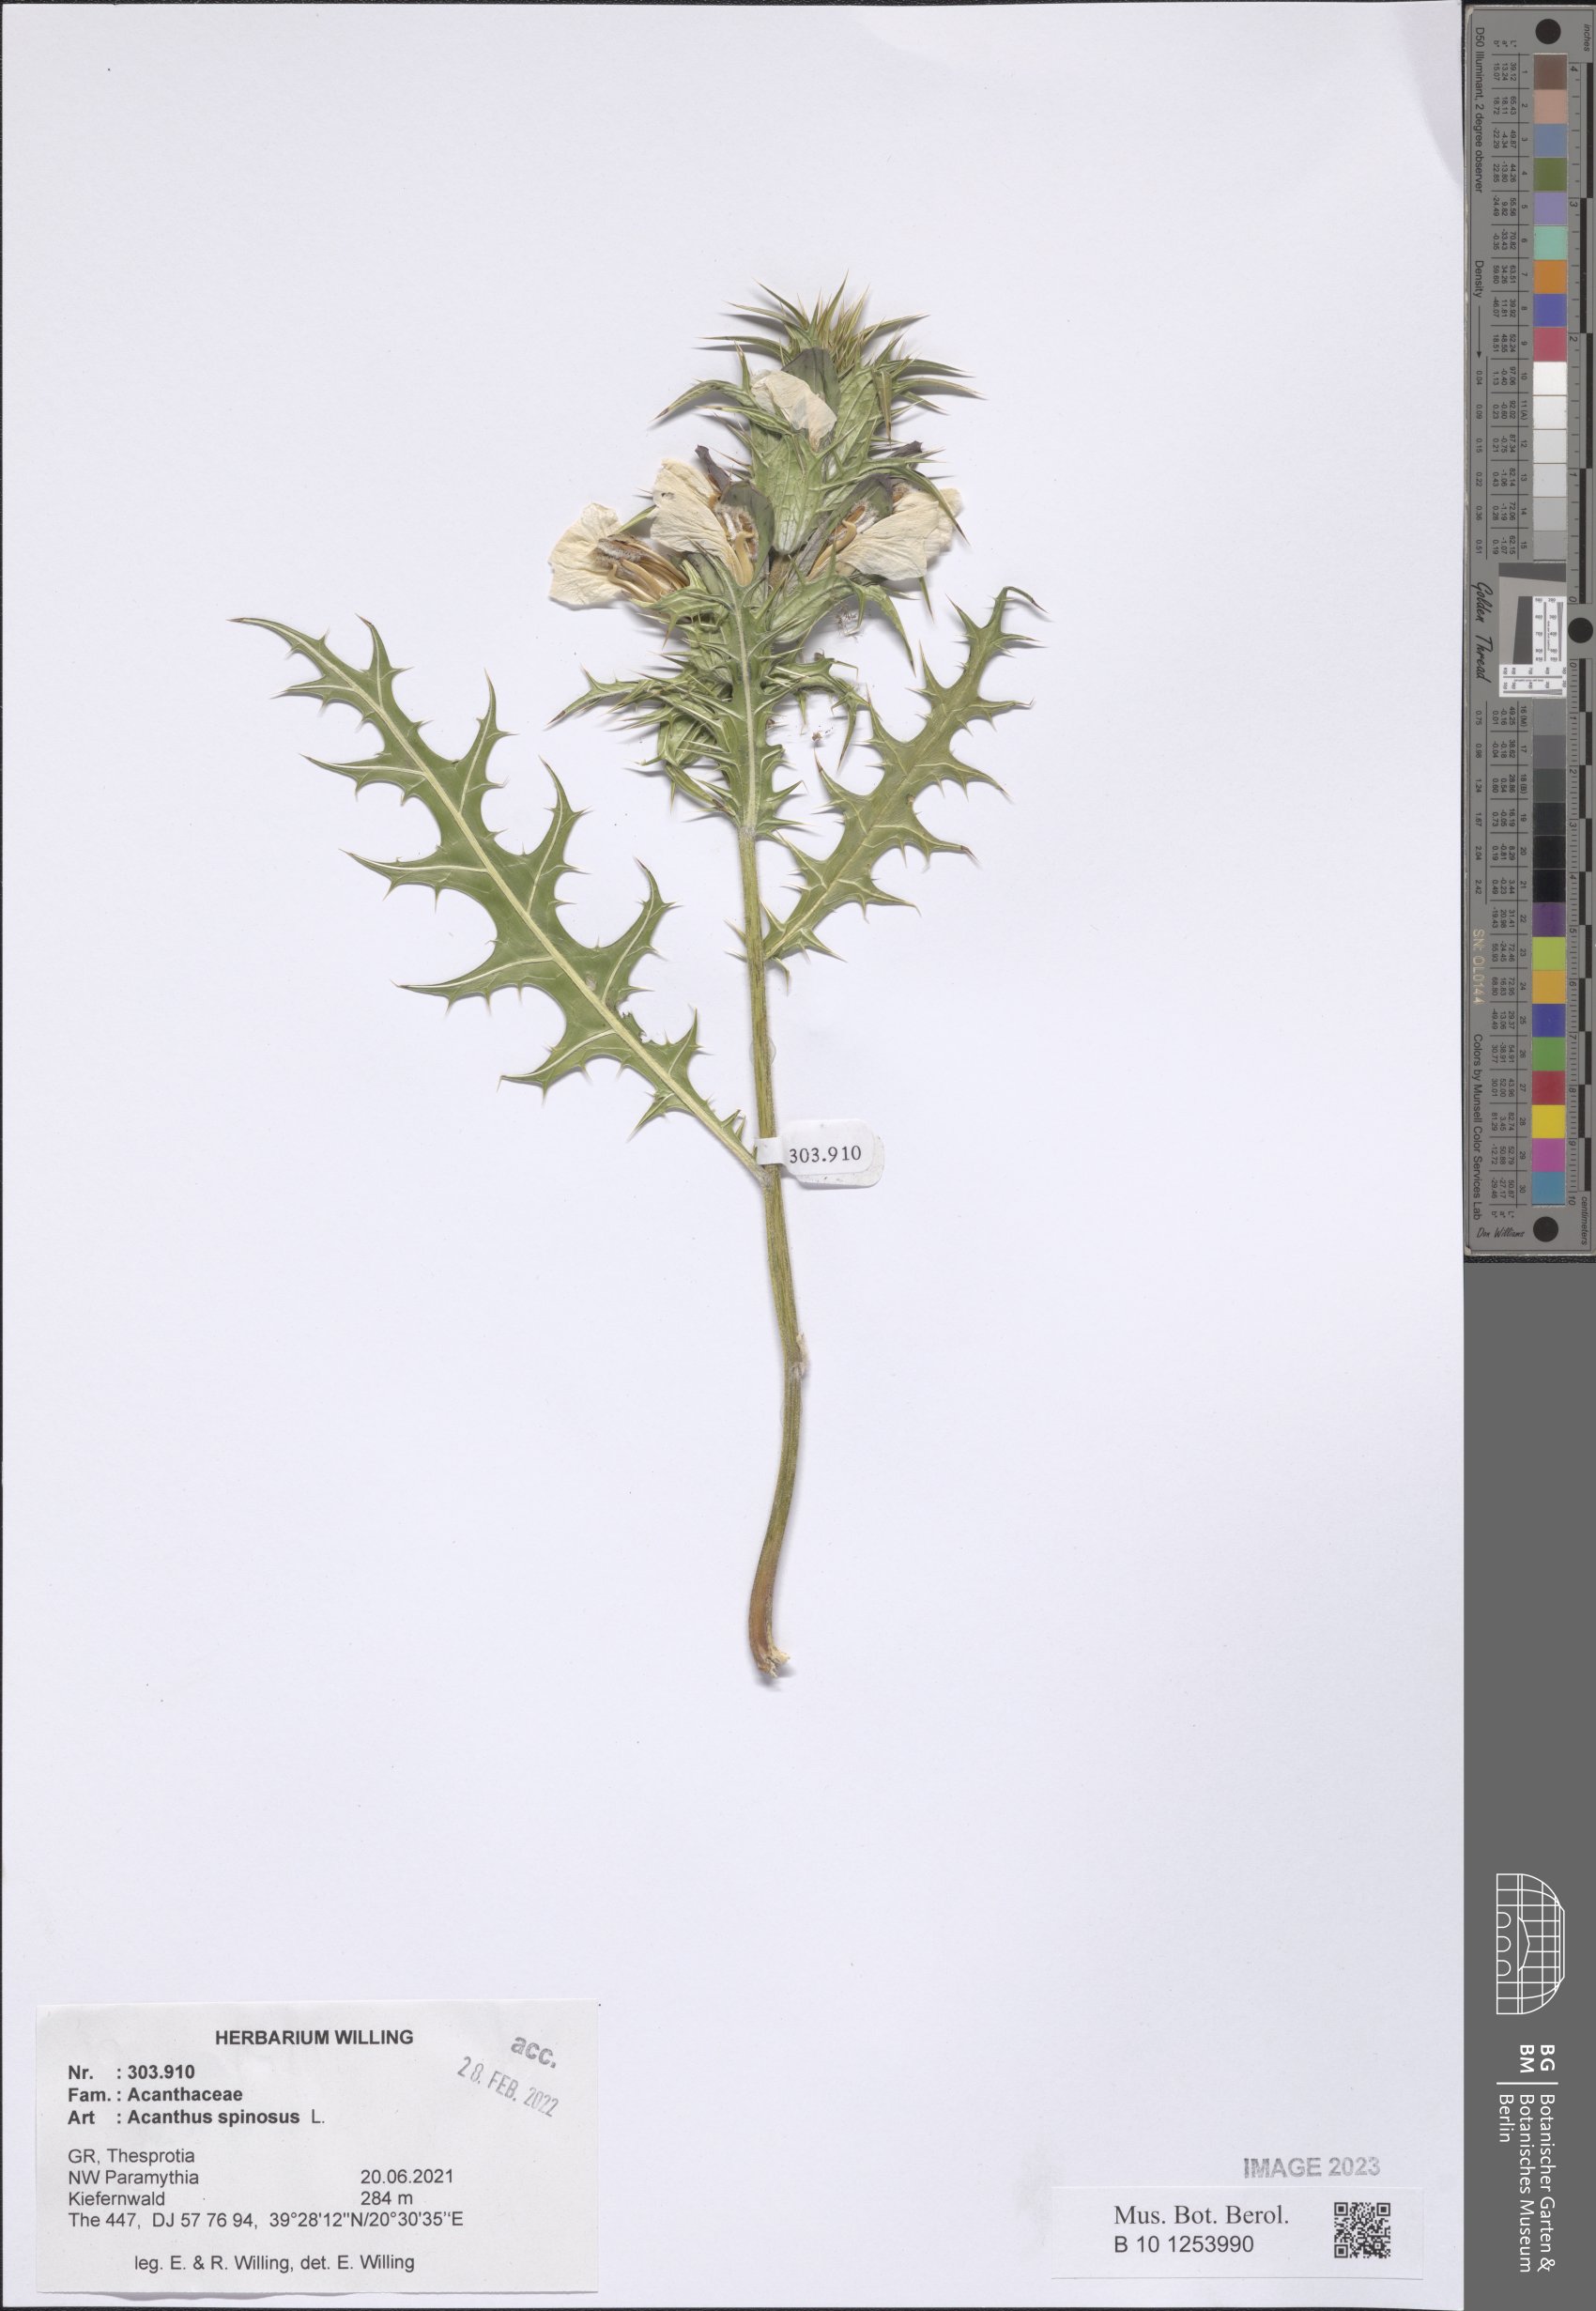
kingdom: Plantae
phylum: Tracheophyta
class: Magnoliopsida
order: Lamiales
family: Acanthaceae
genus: Acanthus
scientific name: Acanthus spinosus
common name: Spiny bear's-breech
